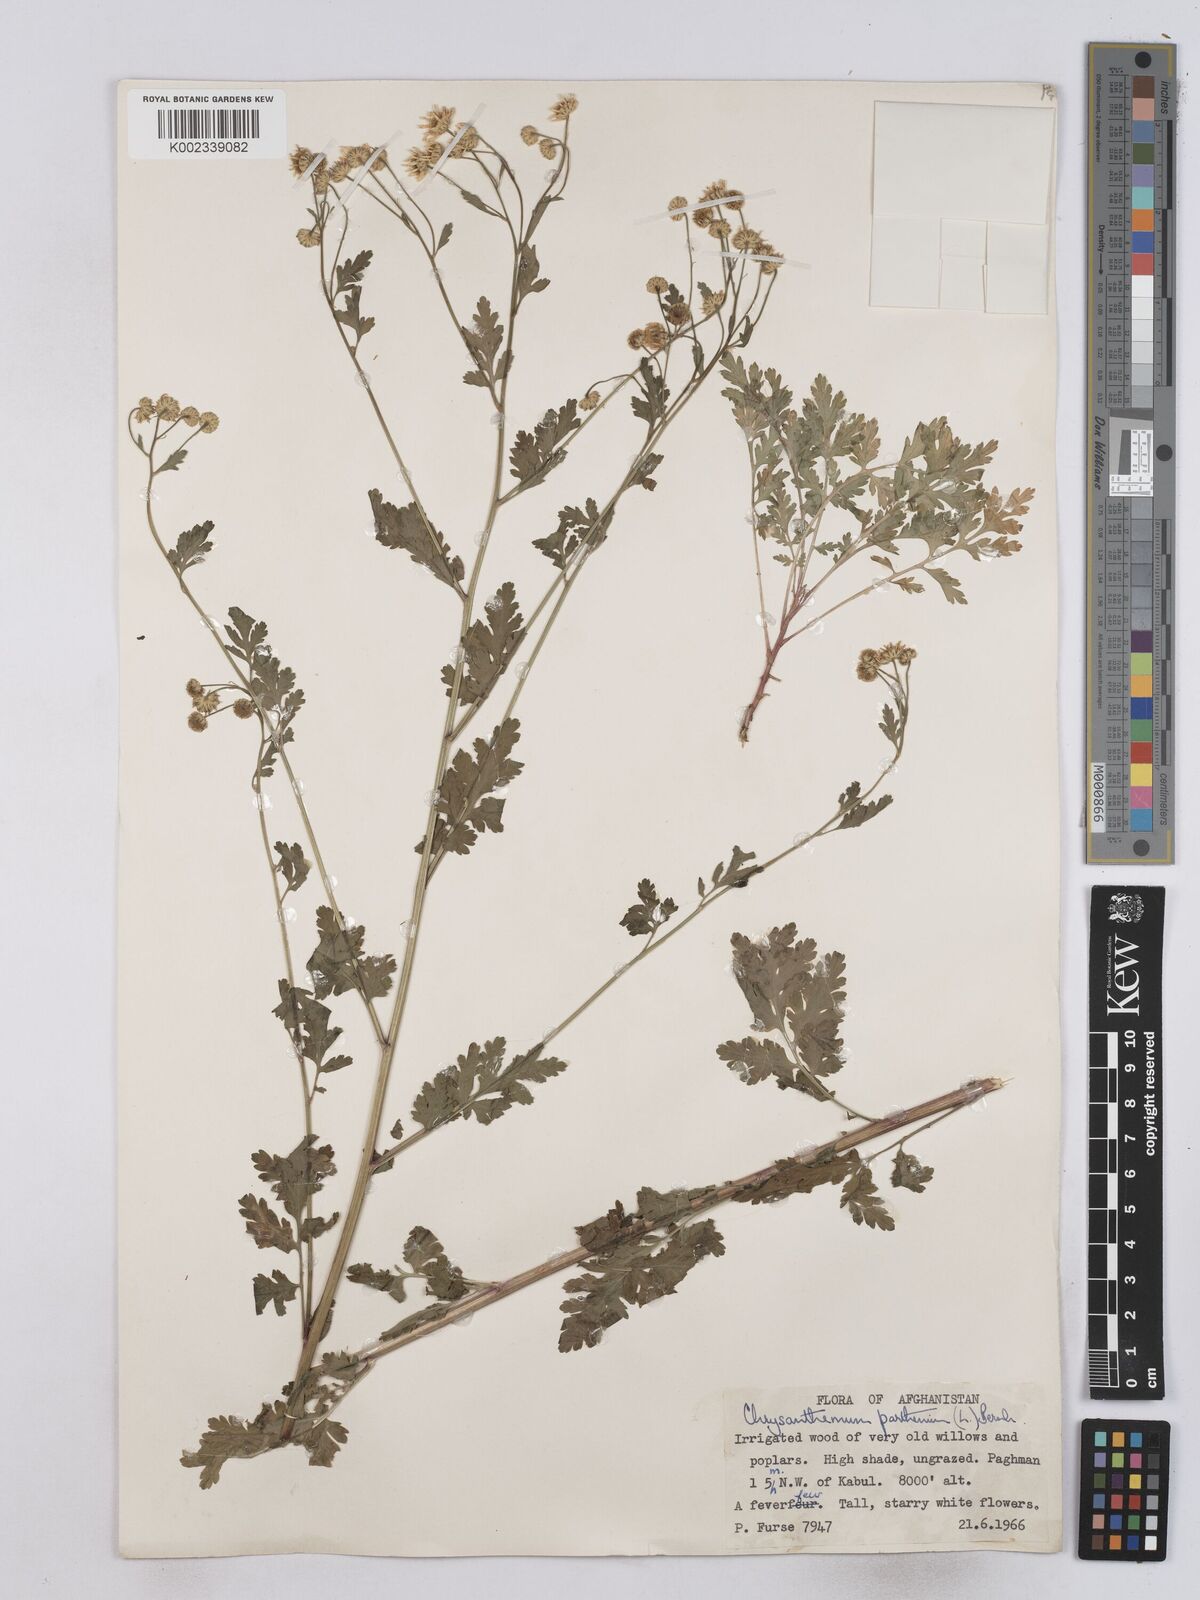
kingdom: Plantae
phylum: Tracheophyta
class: Magnoliopsida
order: Asterales
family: Asteraceae
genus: Tanacetum
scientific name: Tanacetum parthenium
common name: Feverfew
